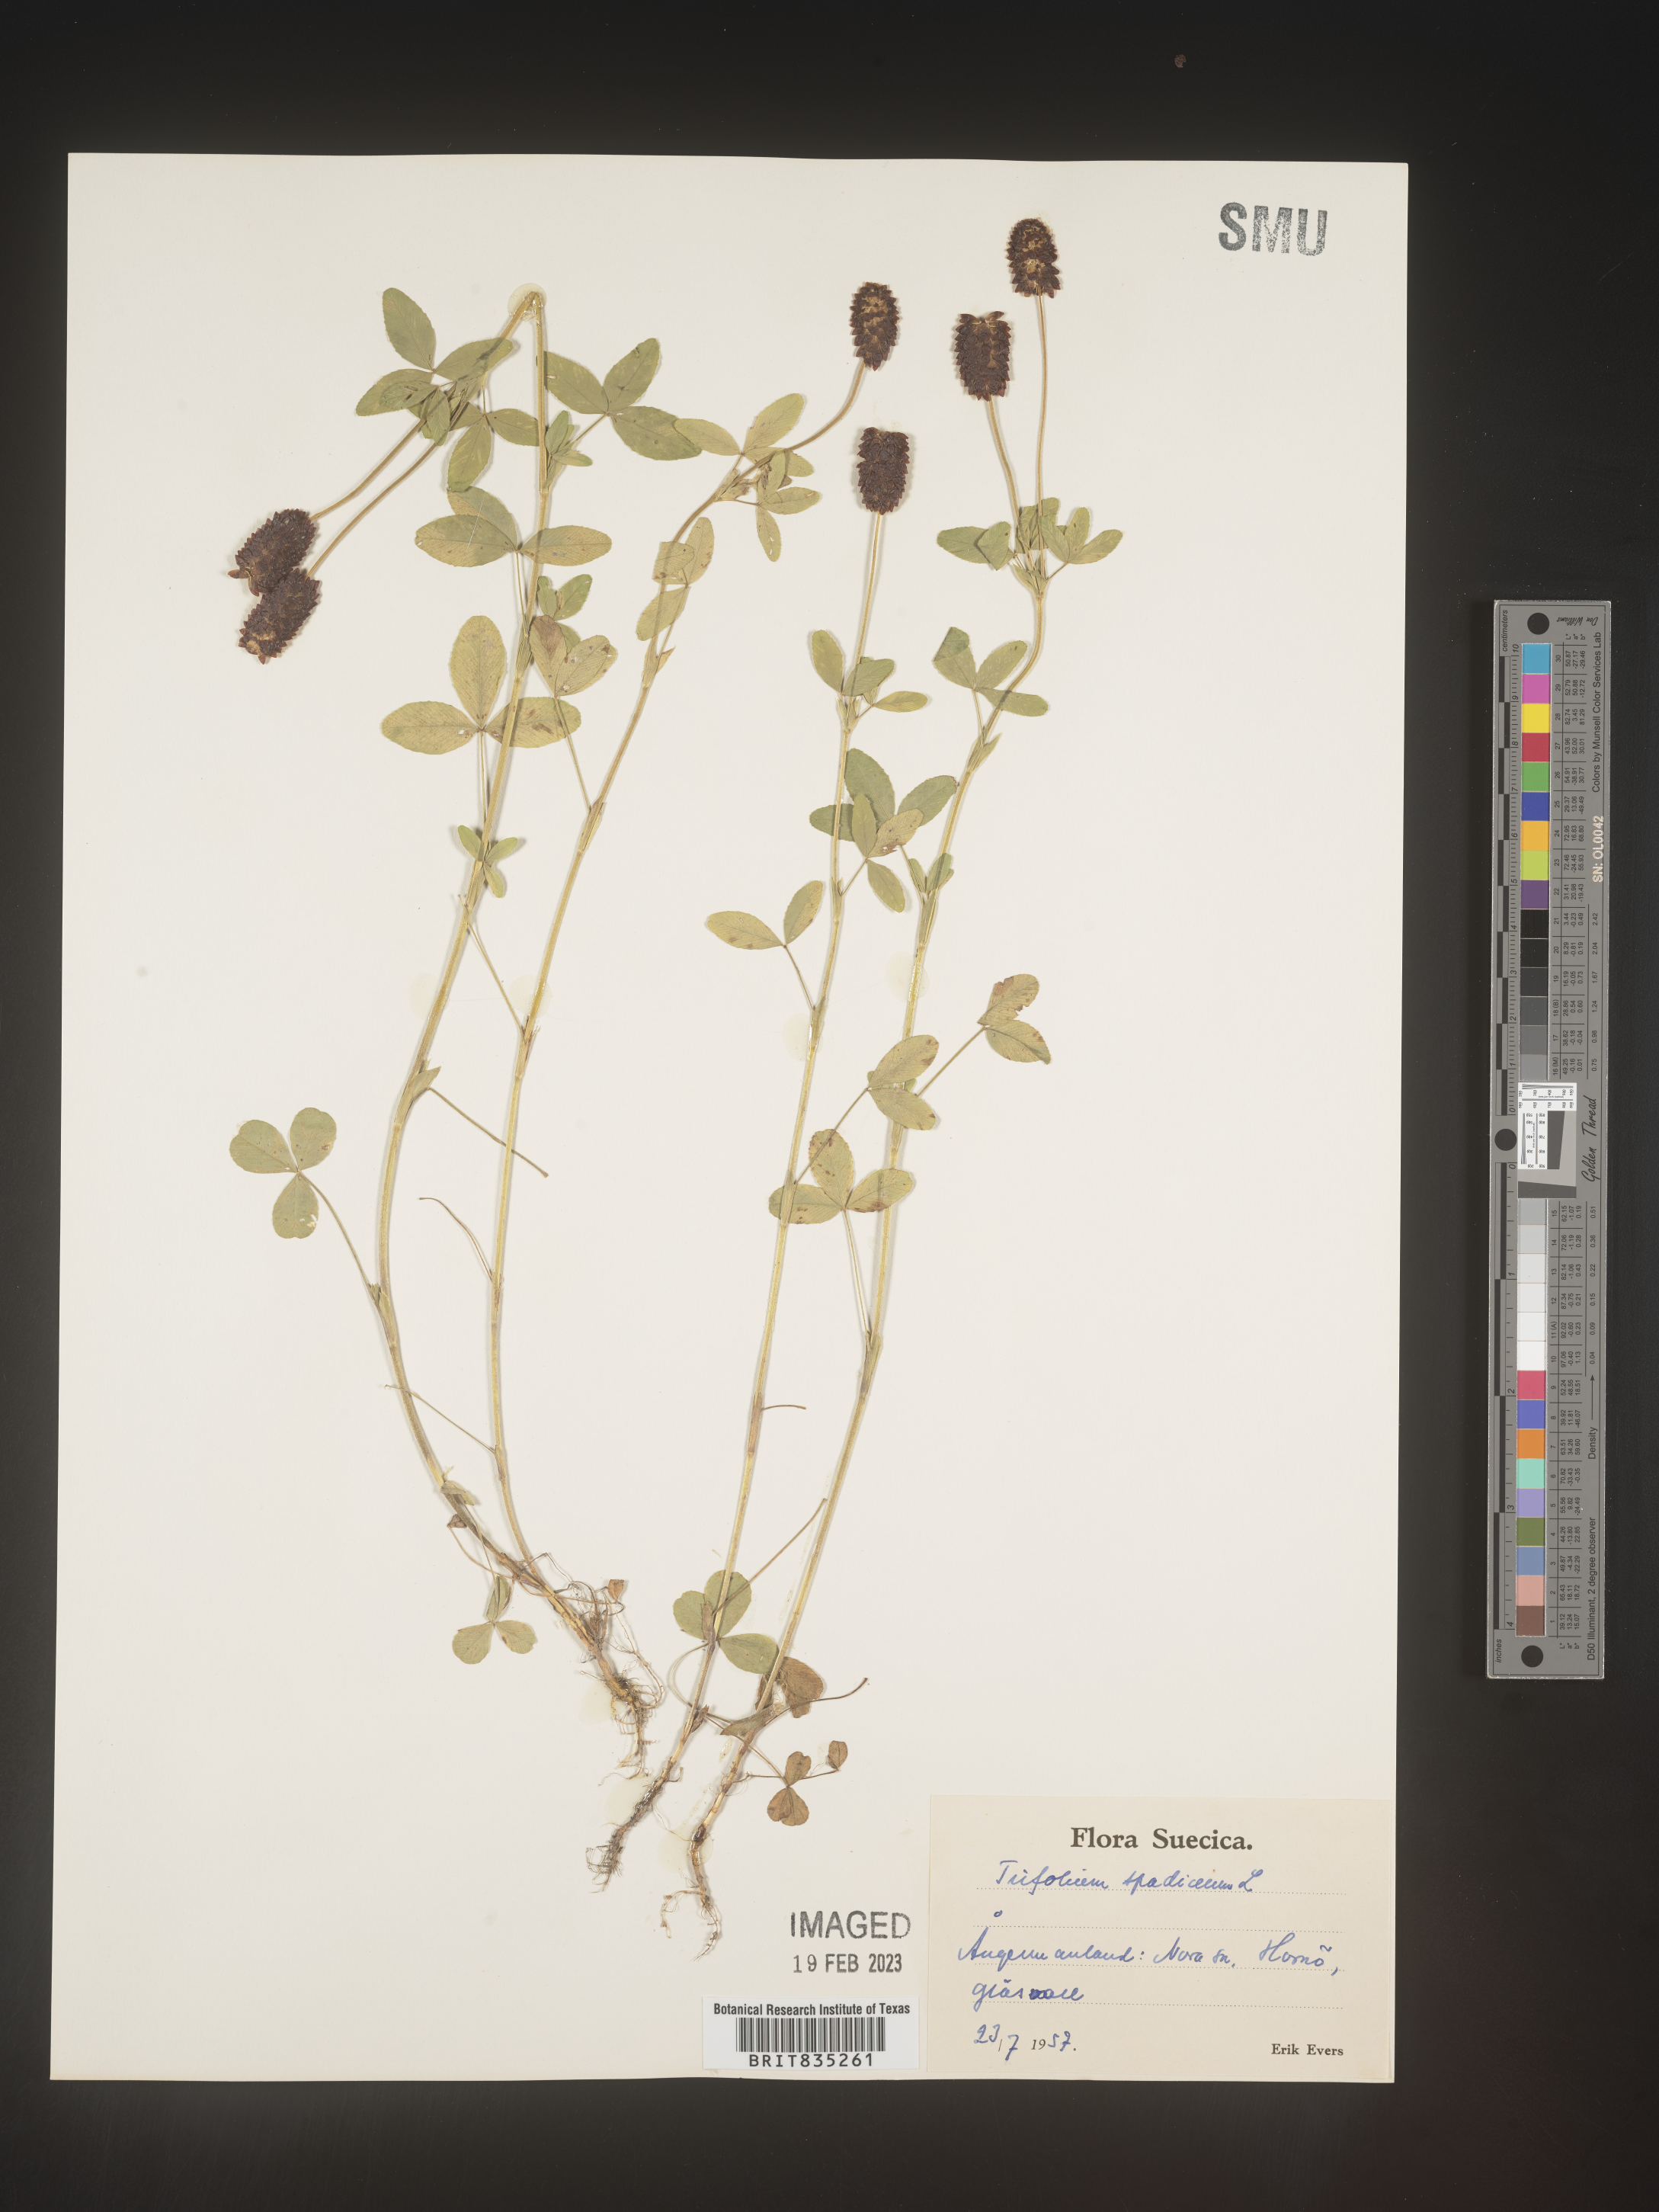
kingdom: Plantae
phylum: Tracheophyta
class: Magnoliopsida
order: Fabales
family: Fabaceae
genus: Trifolium
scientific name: Trifolium
